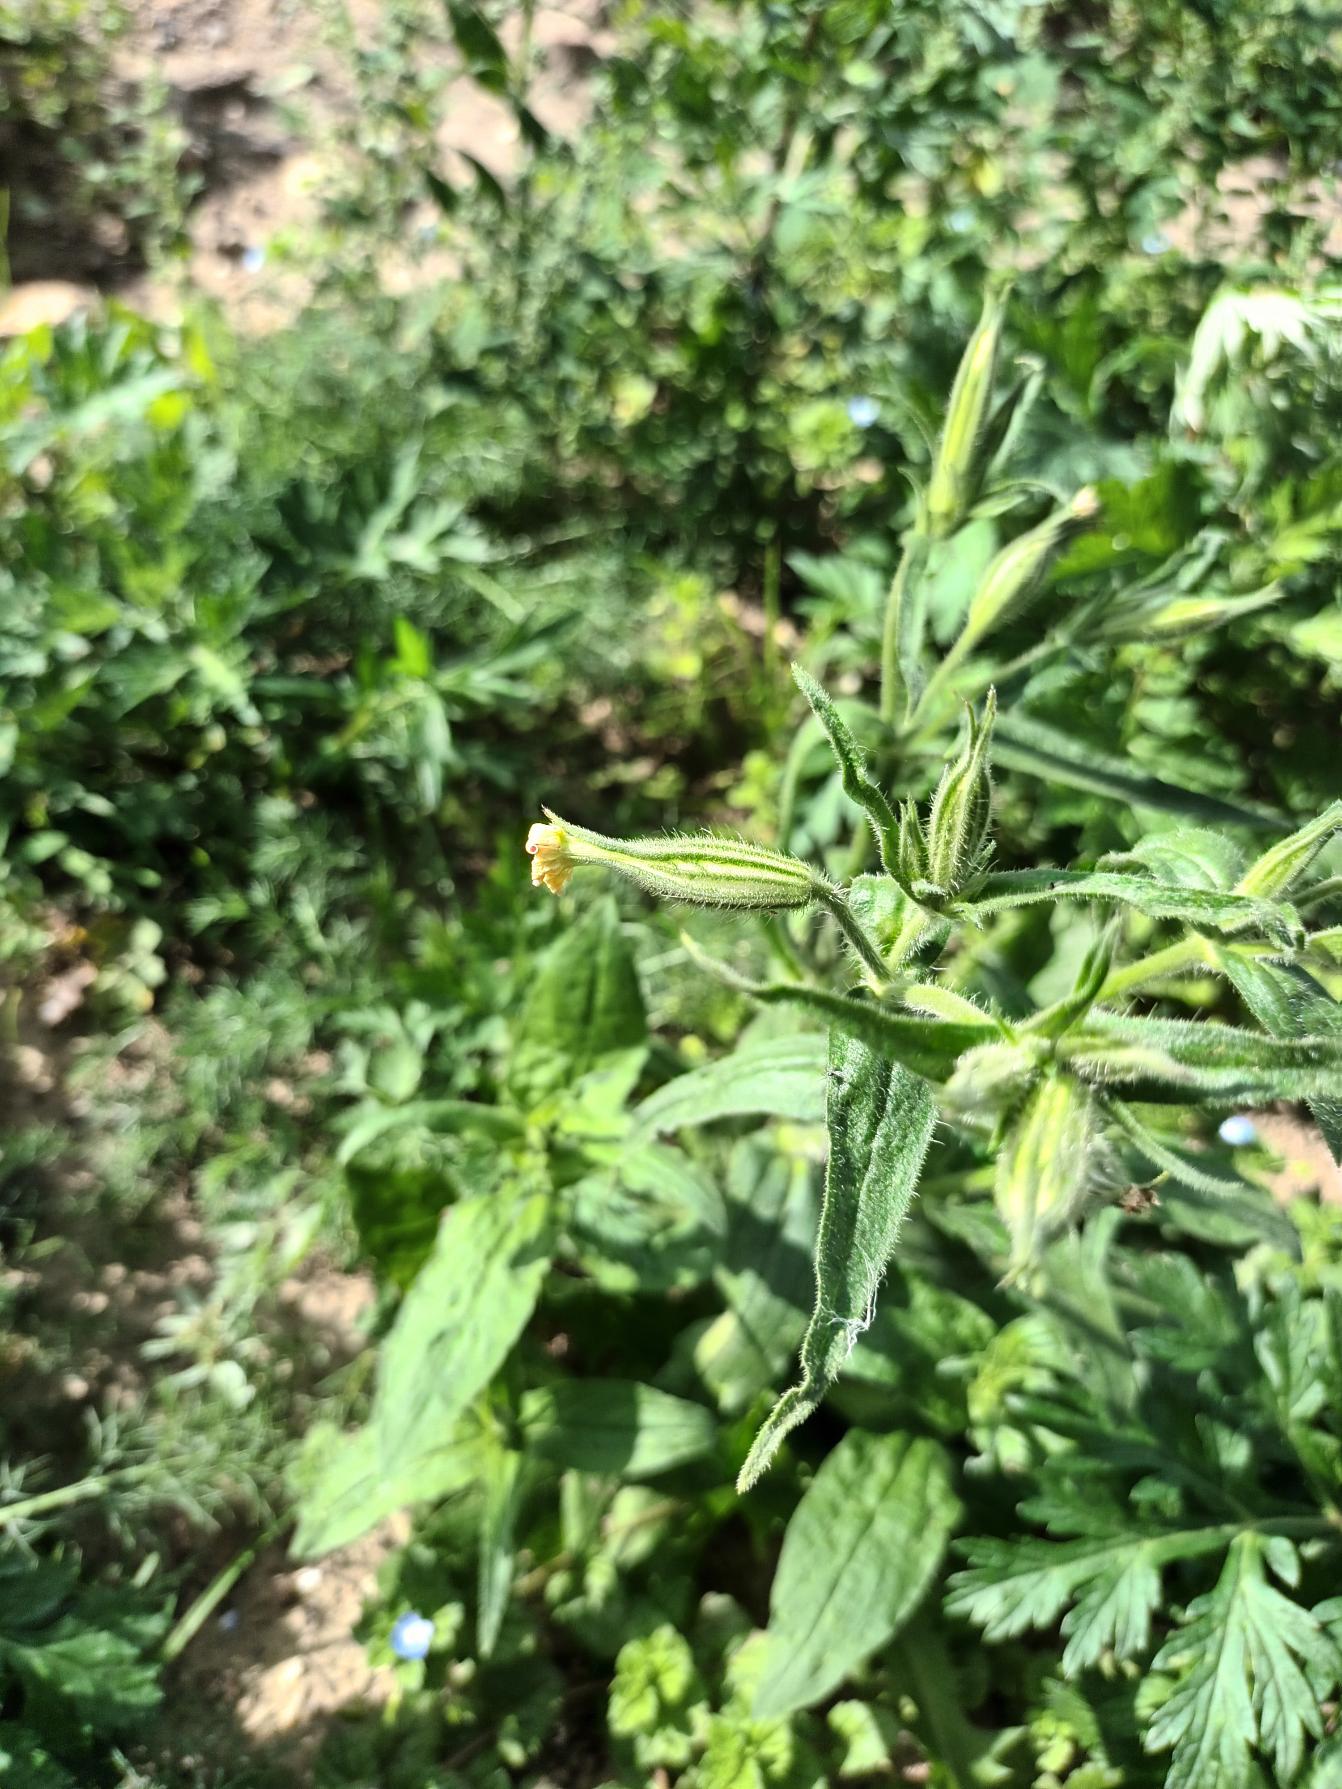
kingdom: Plantae
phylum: Tracheophyta
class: Magnoliopsida
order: Caryophyllales
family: Caryophyllaceae
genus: Silene
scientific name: Silene noctiflora
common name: Nat-limurt
